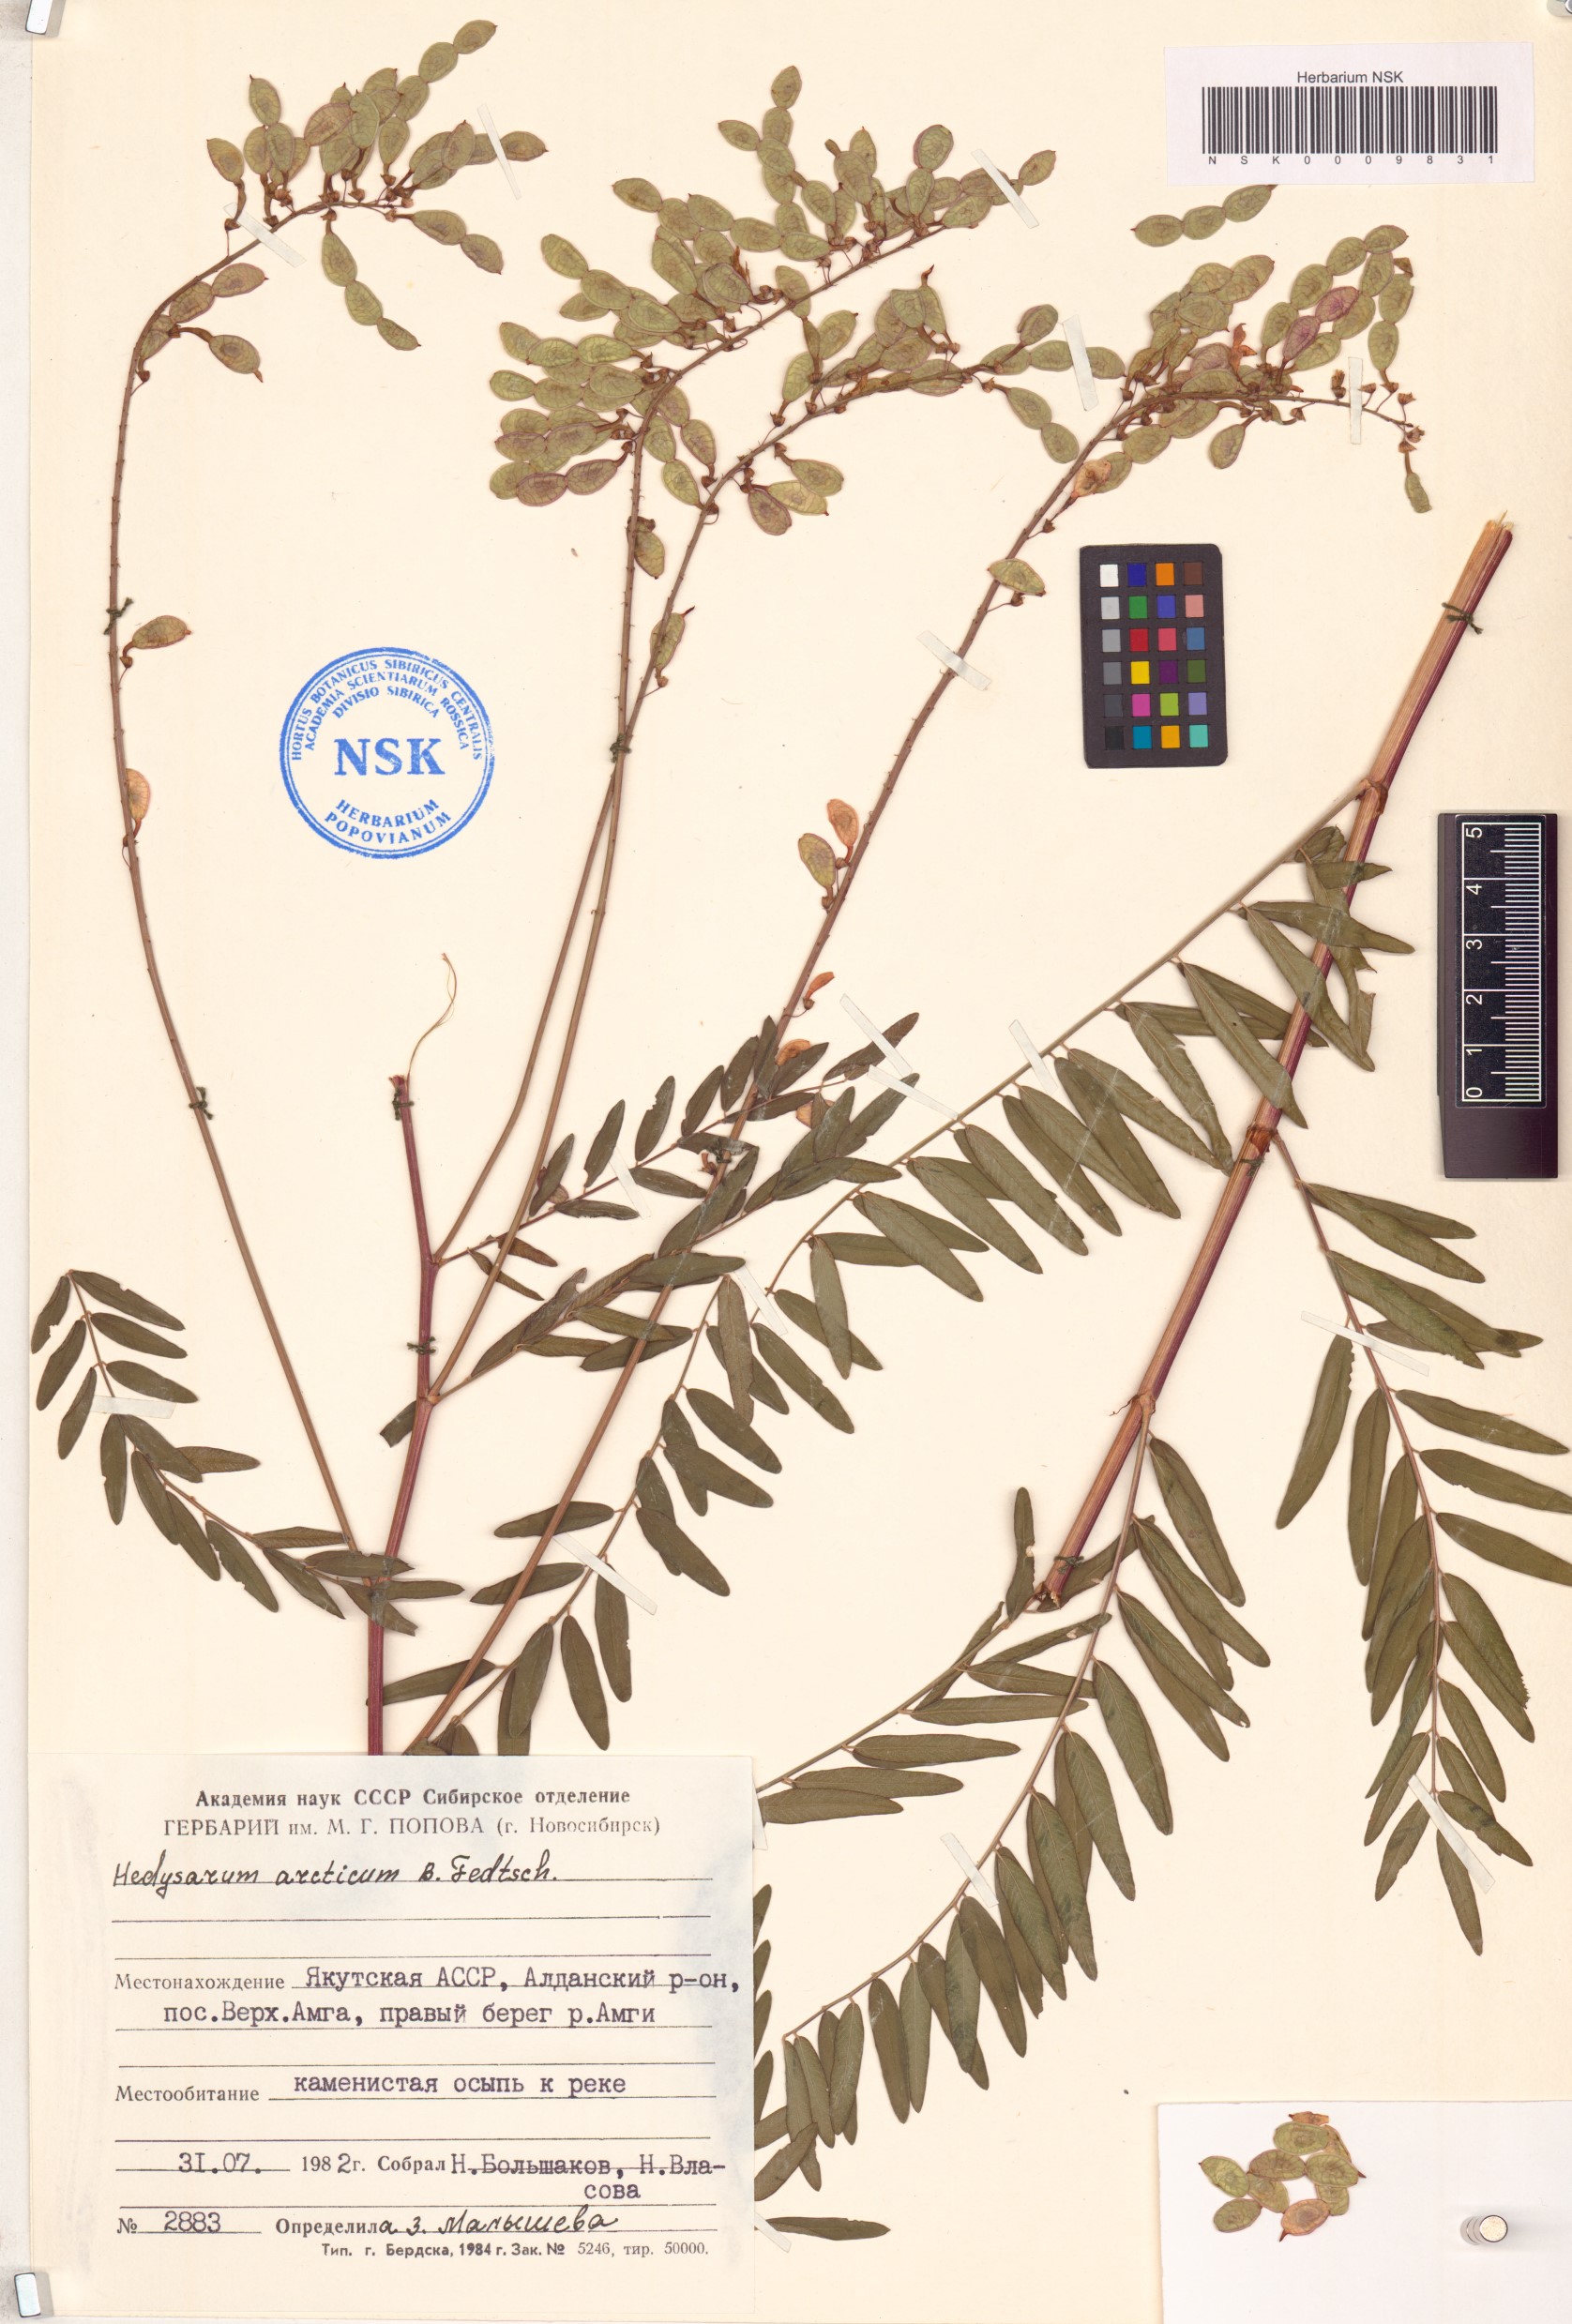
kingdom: Plantae
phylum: Tracheophyta
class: Magnoliopsida
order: Fabales
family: Fabaceae
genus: Hedysarum
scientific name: Hedysarum hedysaroides
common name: Alpine french-honeysuckle
